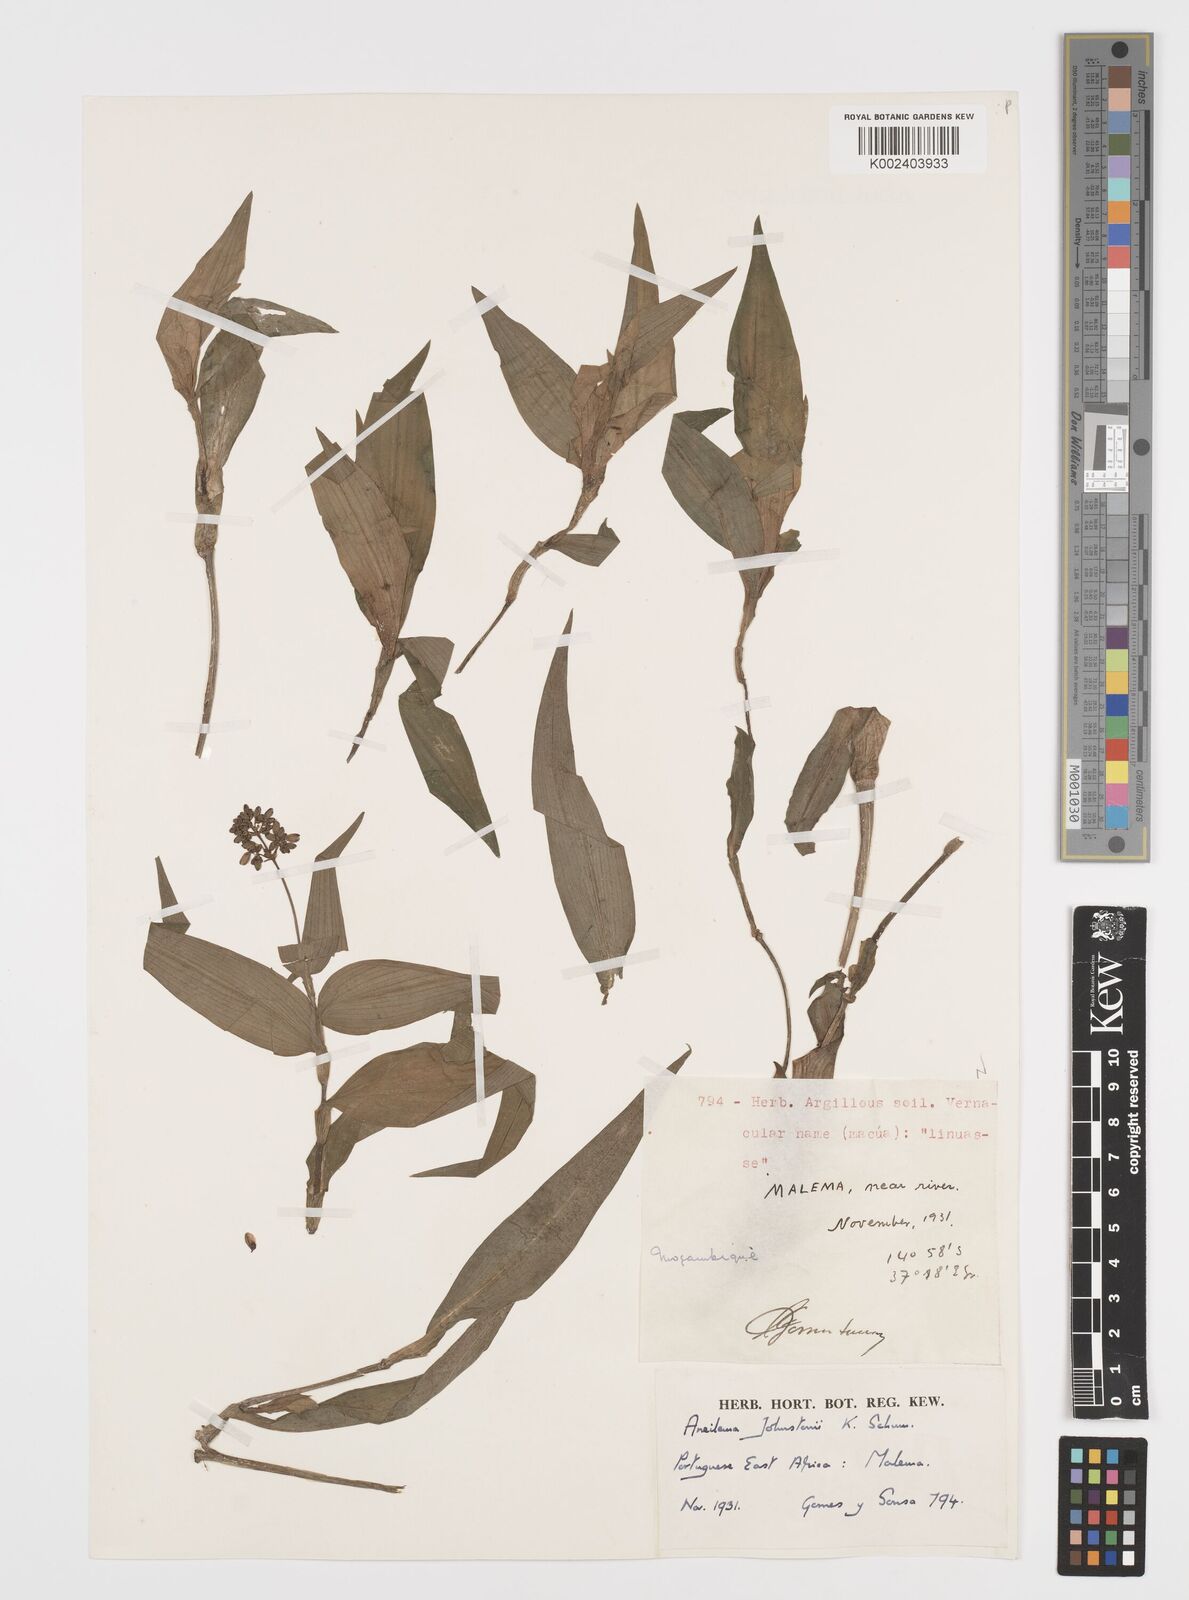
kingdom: Plantae
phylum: Tracheophyta
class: Liliopsida
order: Commelinales
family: Commelinaceae
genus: Aneilema
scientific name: Aneilema johnstonii
